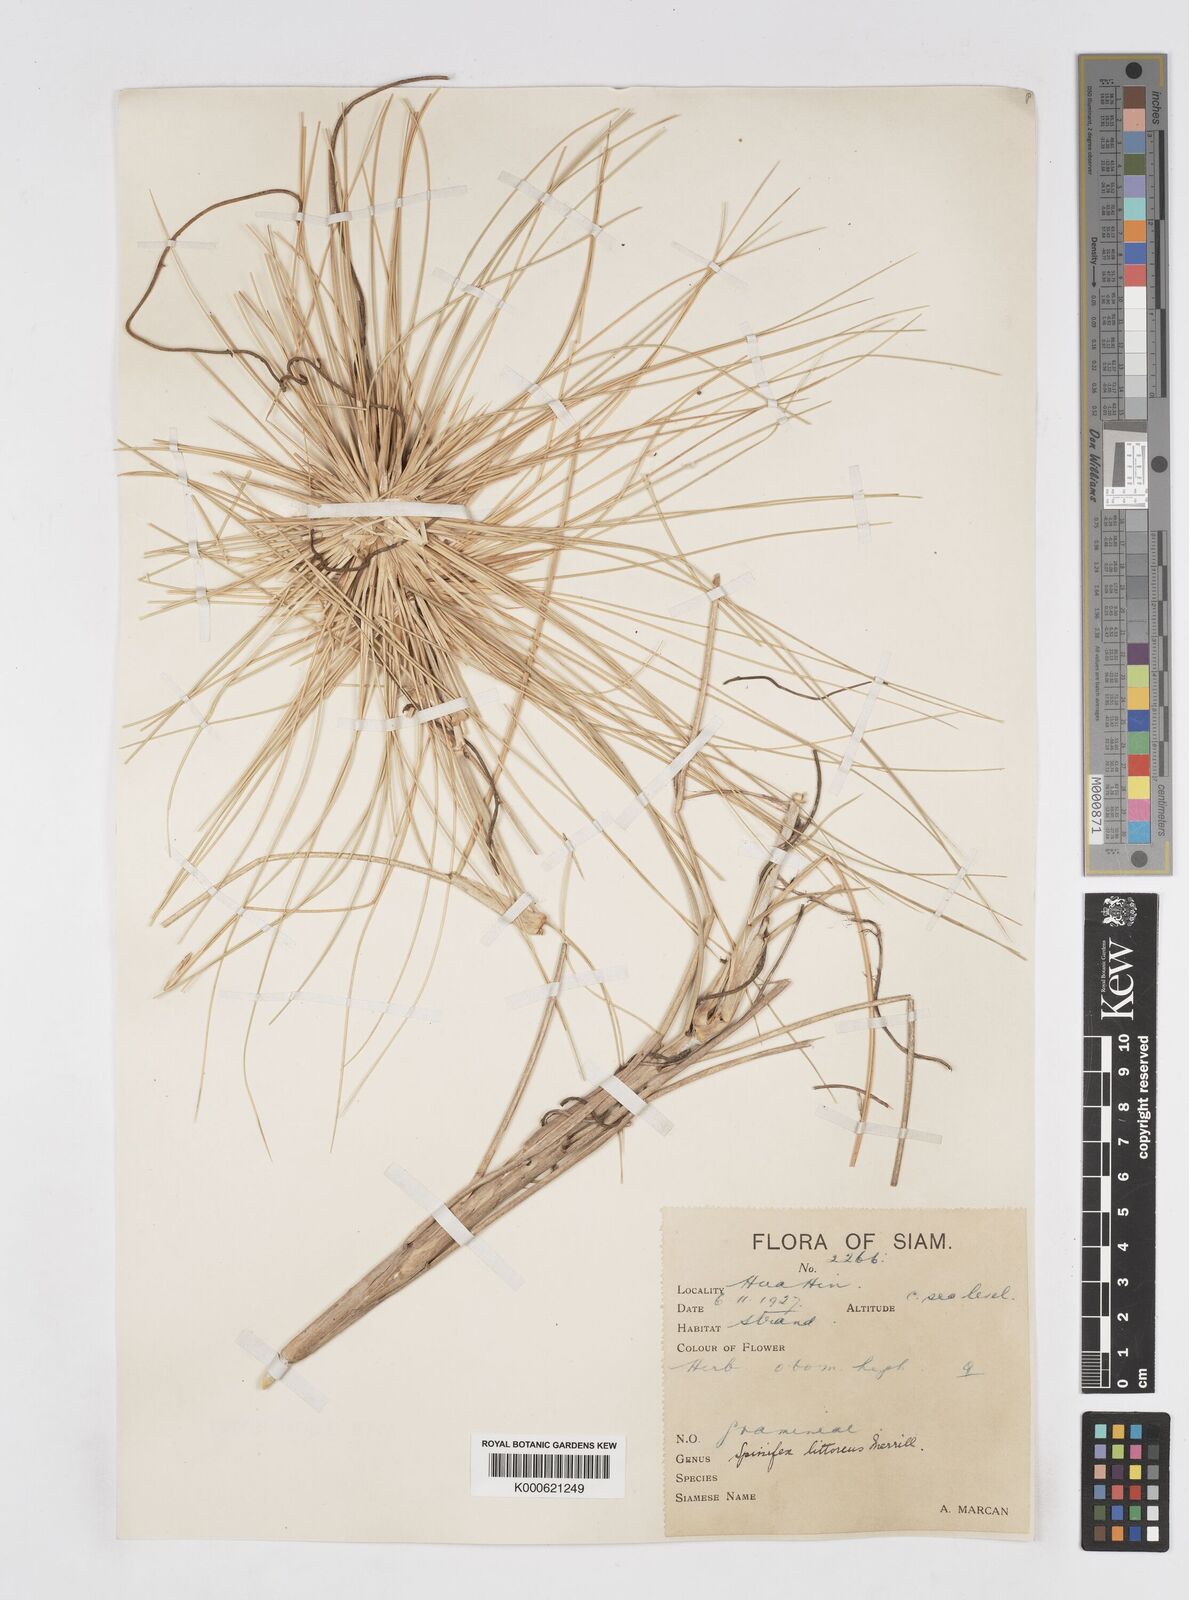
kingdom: Plantae
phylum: Tracheophyta
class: Liliopsida
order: Poales
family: Poaceae
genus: Spinifex
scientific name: Spinifex littoreus
